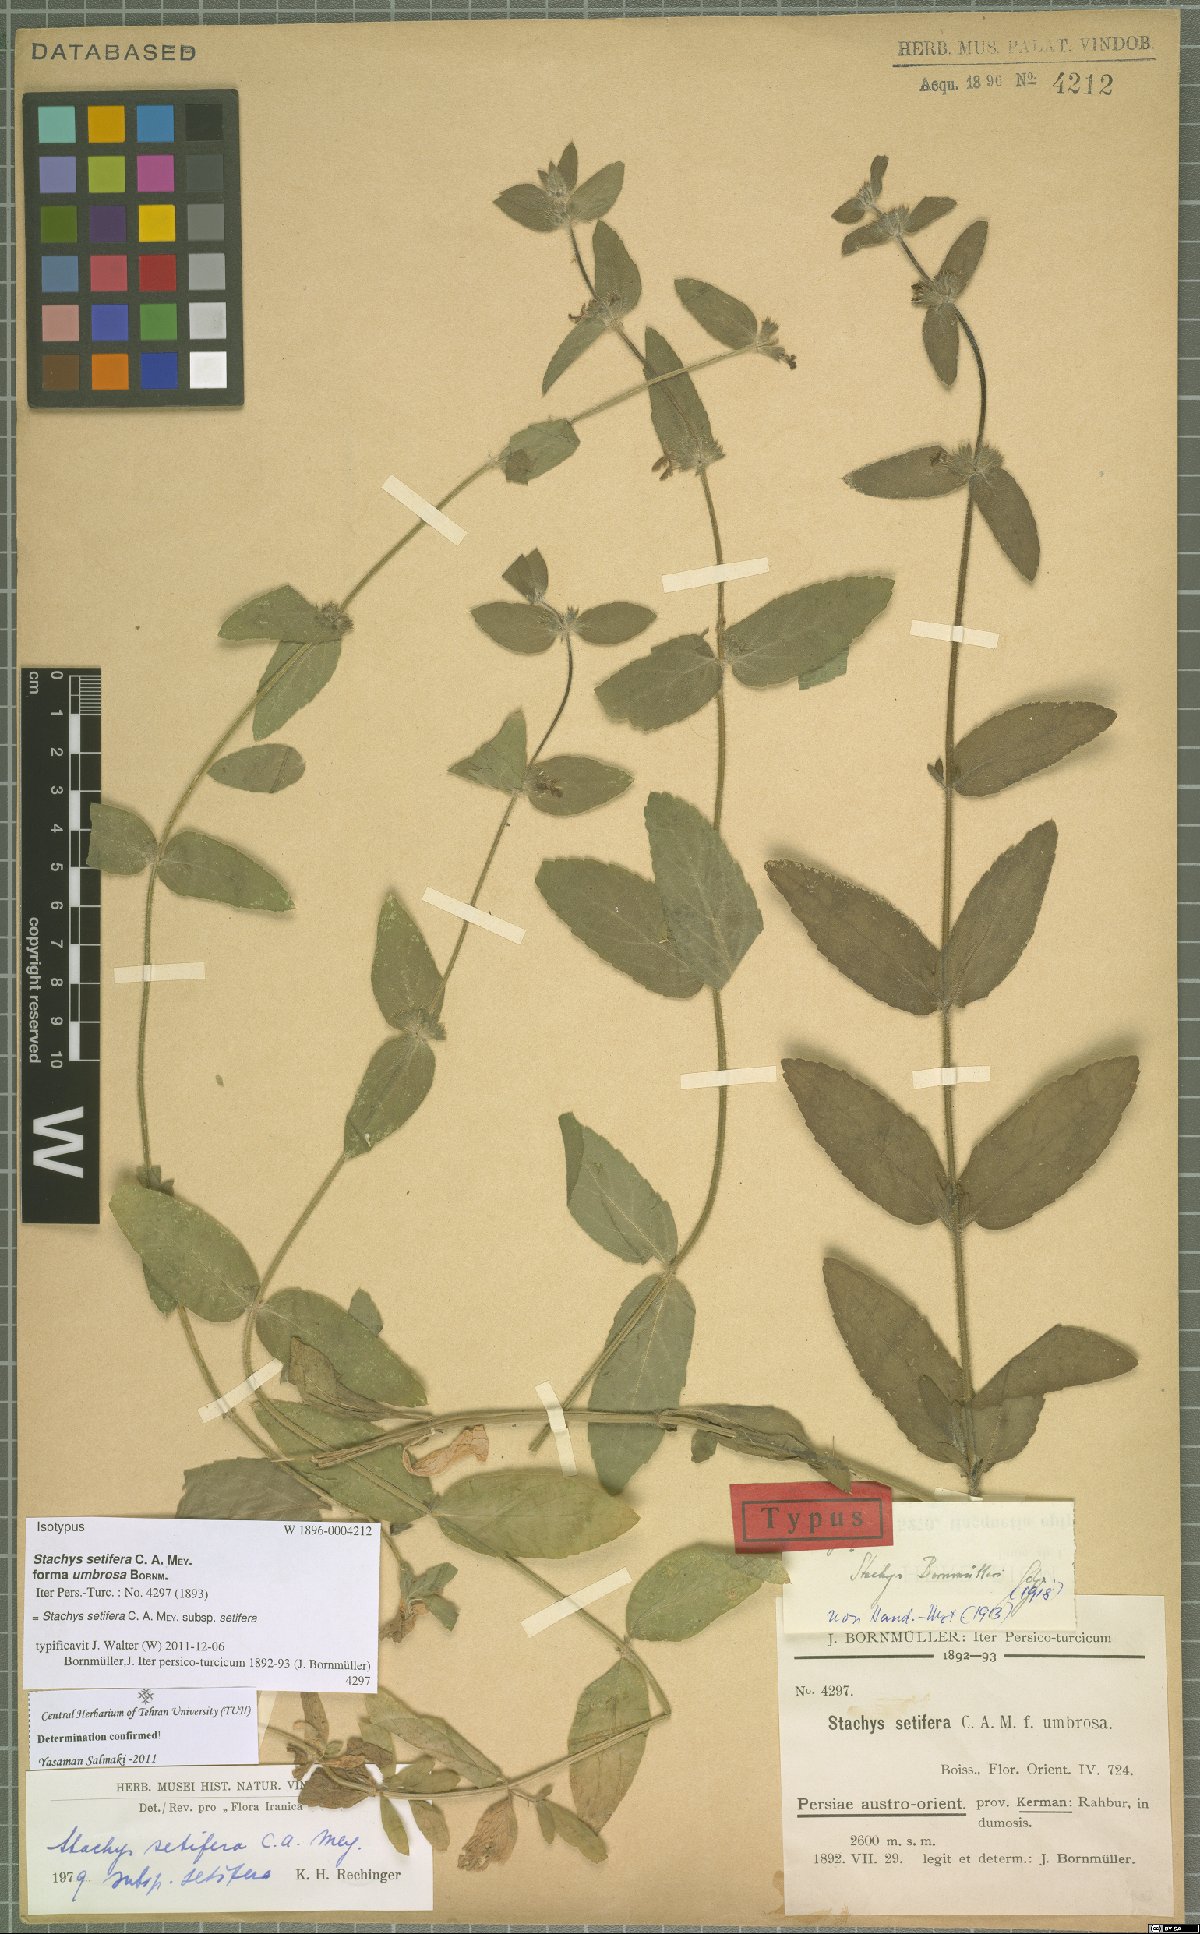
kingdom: Plantae
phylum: Tracheophyta
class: Magnoliopsida
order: Lamiales
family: Lamiaceae
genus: Stachys
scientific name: Stachys setifera
